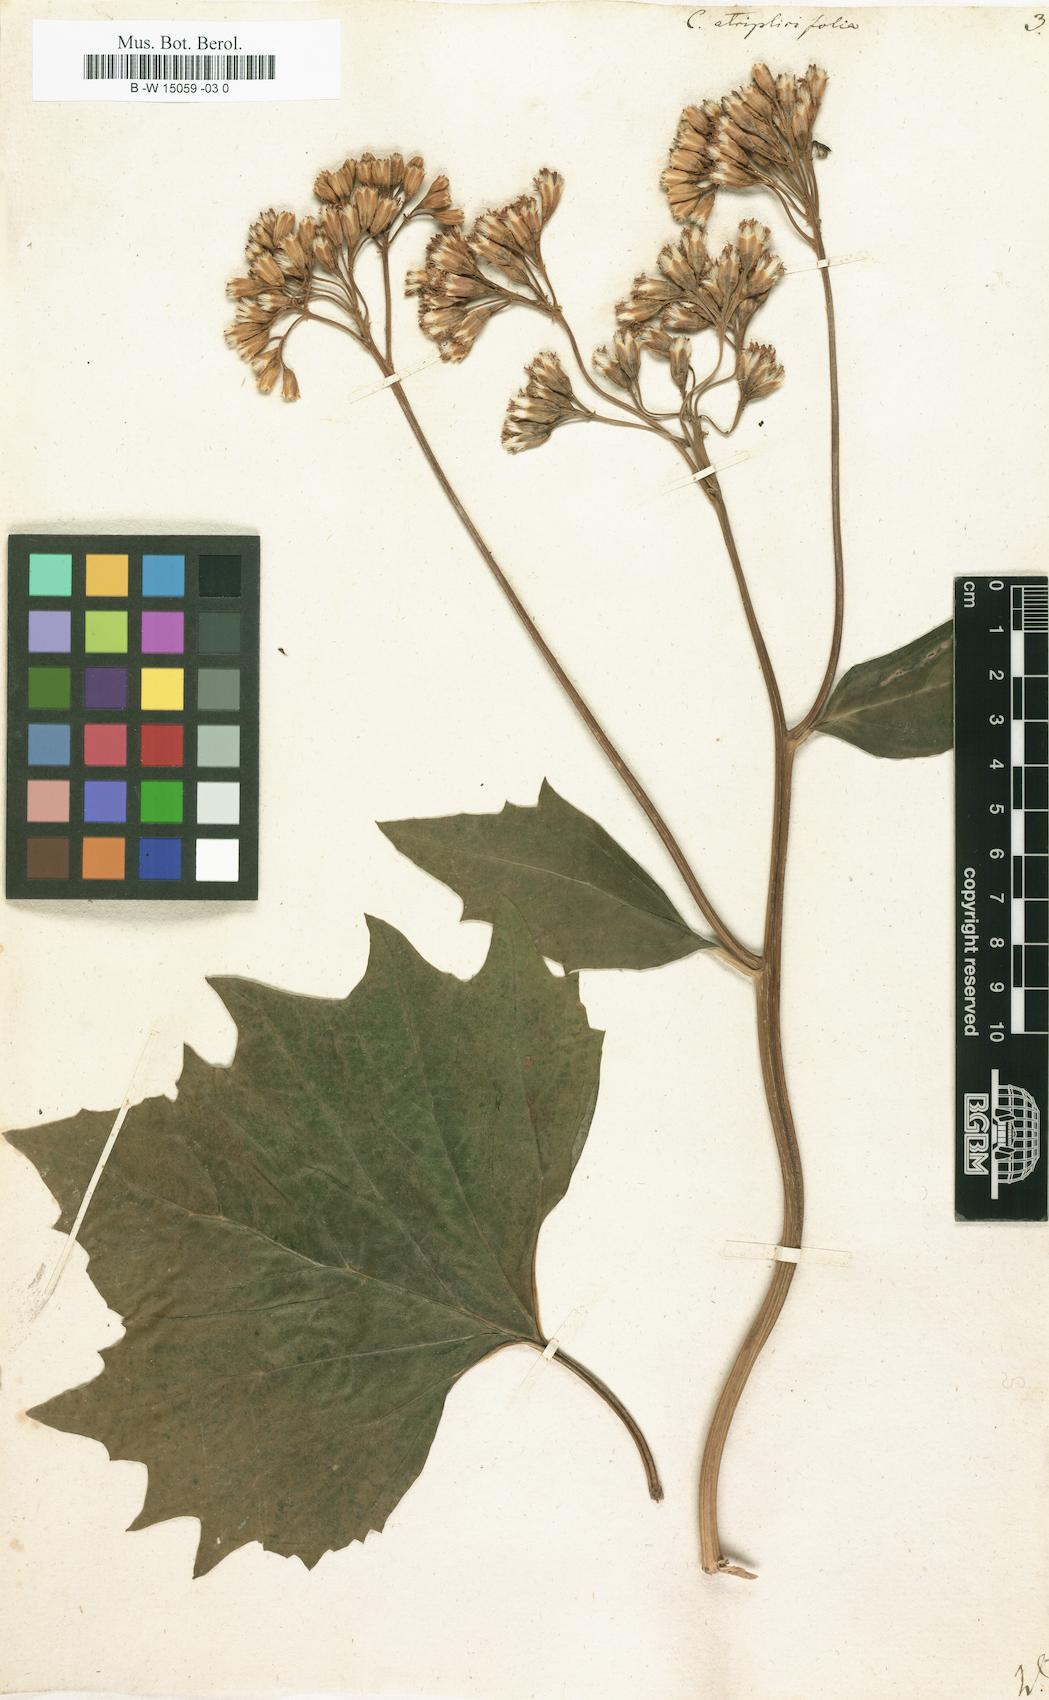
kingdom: Plantae
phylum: Tracheophyta
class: Magnoliopsida
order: Asterales
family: Asteraceae
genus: Arnoglossum
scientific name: Arnoglossum atriplicifolium
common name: Pale indian-plantain
